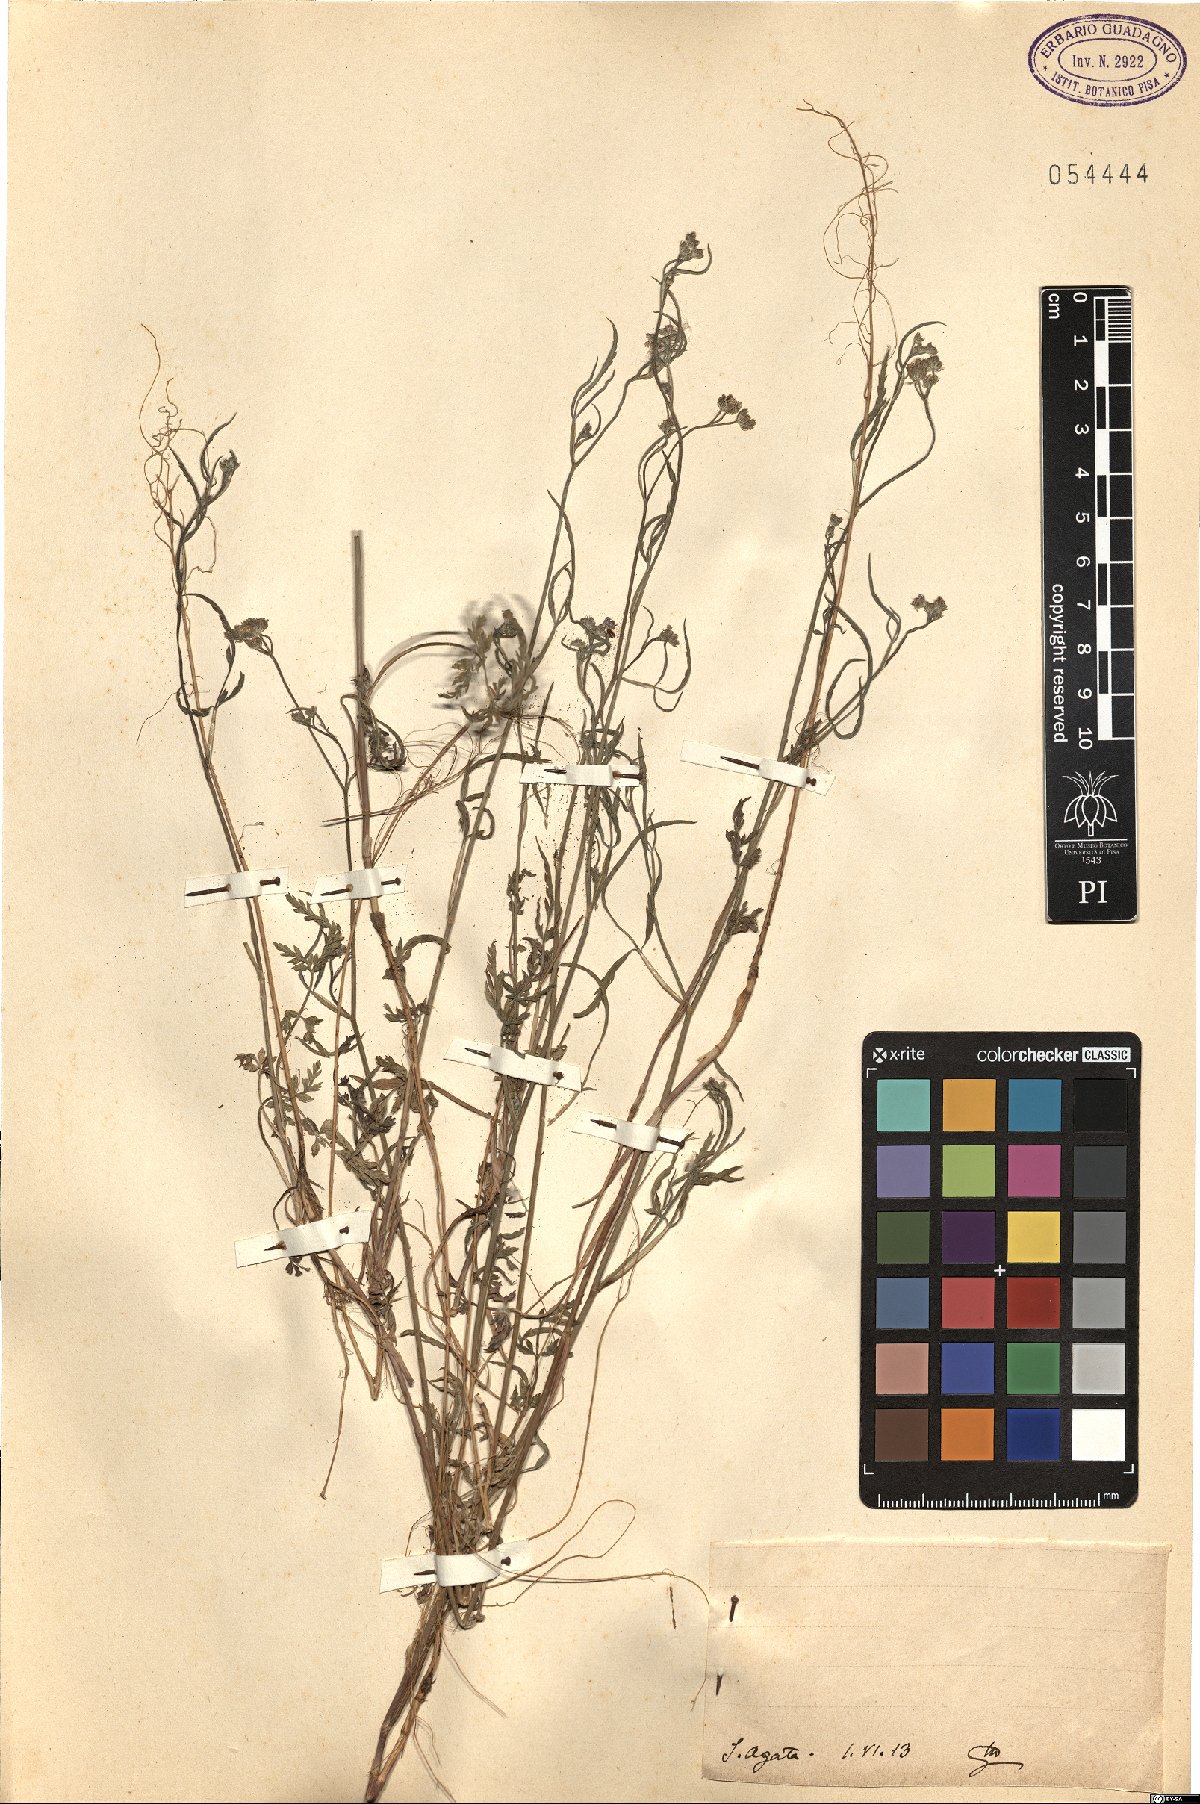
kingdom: Plantae
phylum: Tracheophyta
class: Magnoliopsida
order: Apiales
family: Apiaceae
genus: Torilis
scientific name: Torilis
